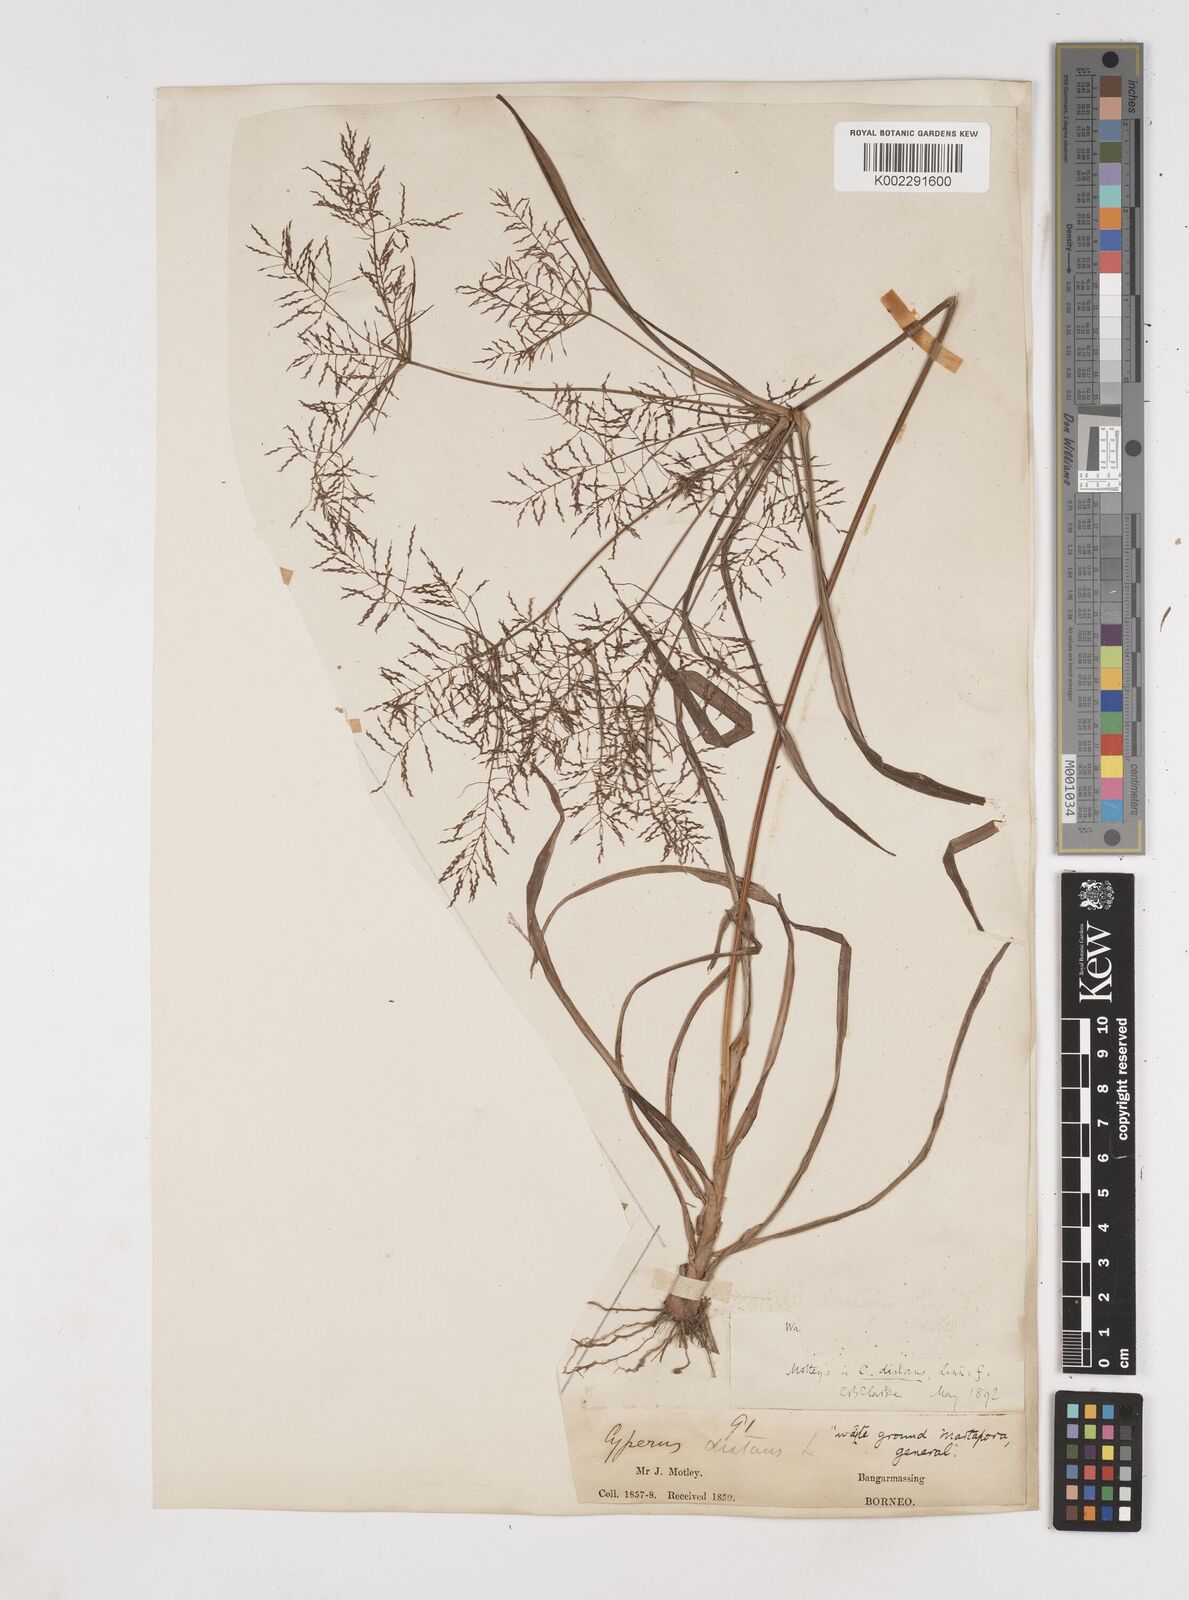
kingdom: Plantae
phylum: Tracheophyta
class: Liliopsida
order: Poales
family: Cyperaceae
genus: Cyperus
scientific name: Cyperus distans
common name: Slender cyperus
